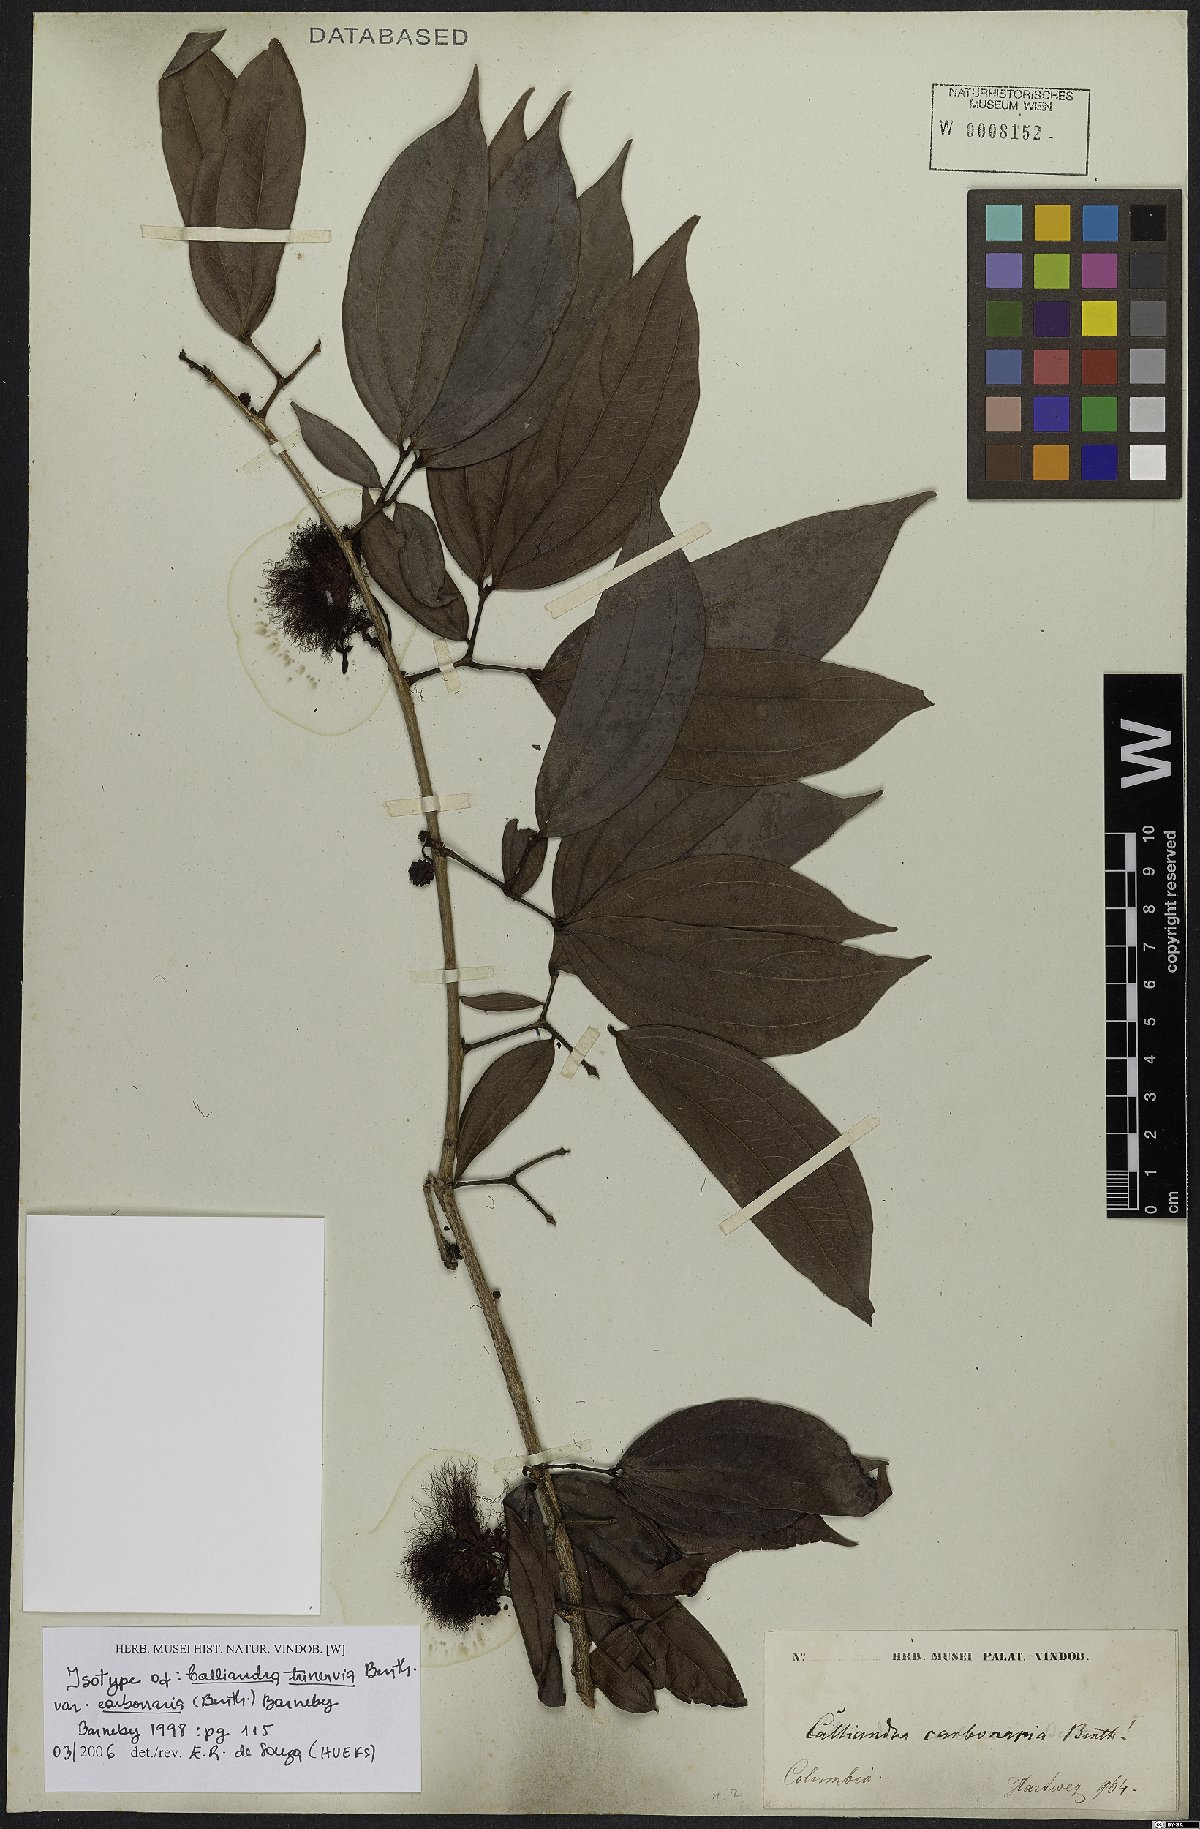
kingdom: Plantae
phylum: Tracheophyta
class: Magnoliopsida
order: Fabales
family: Fabaceae
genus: Calliandra
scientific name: Calliandra trinervia
